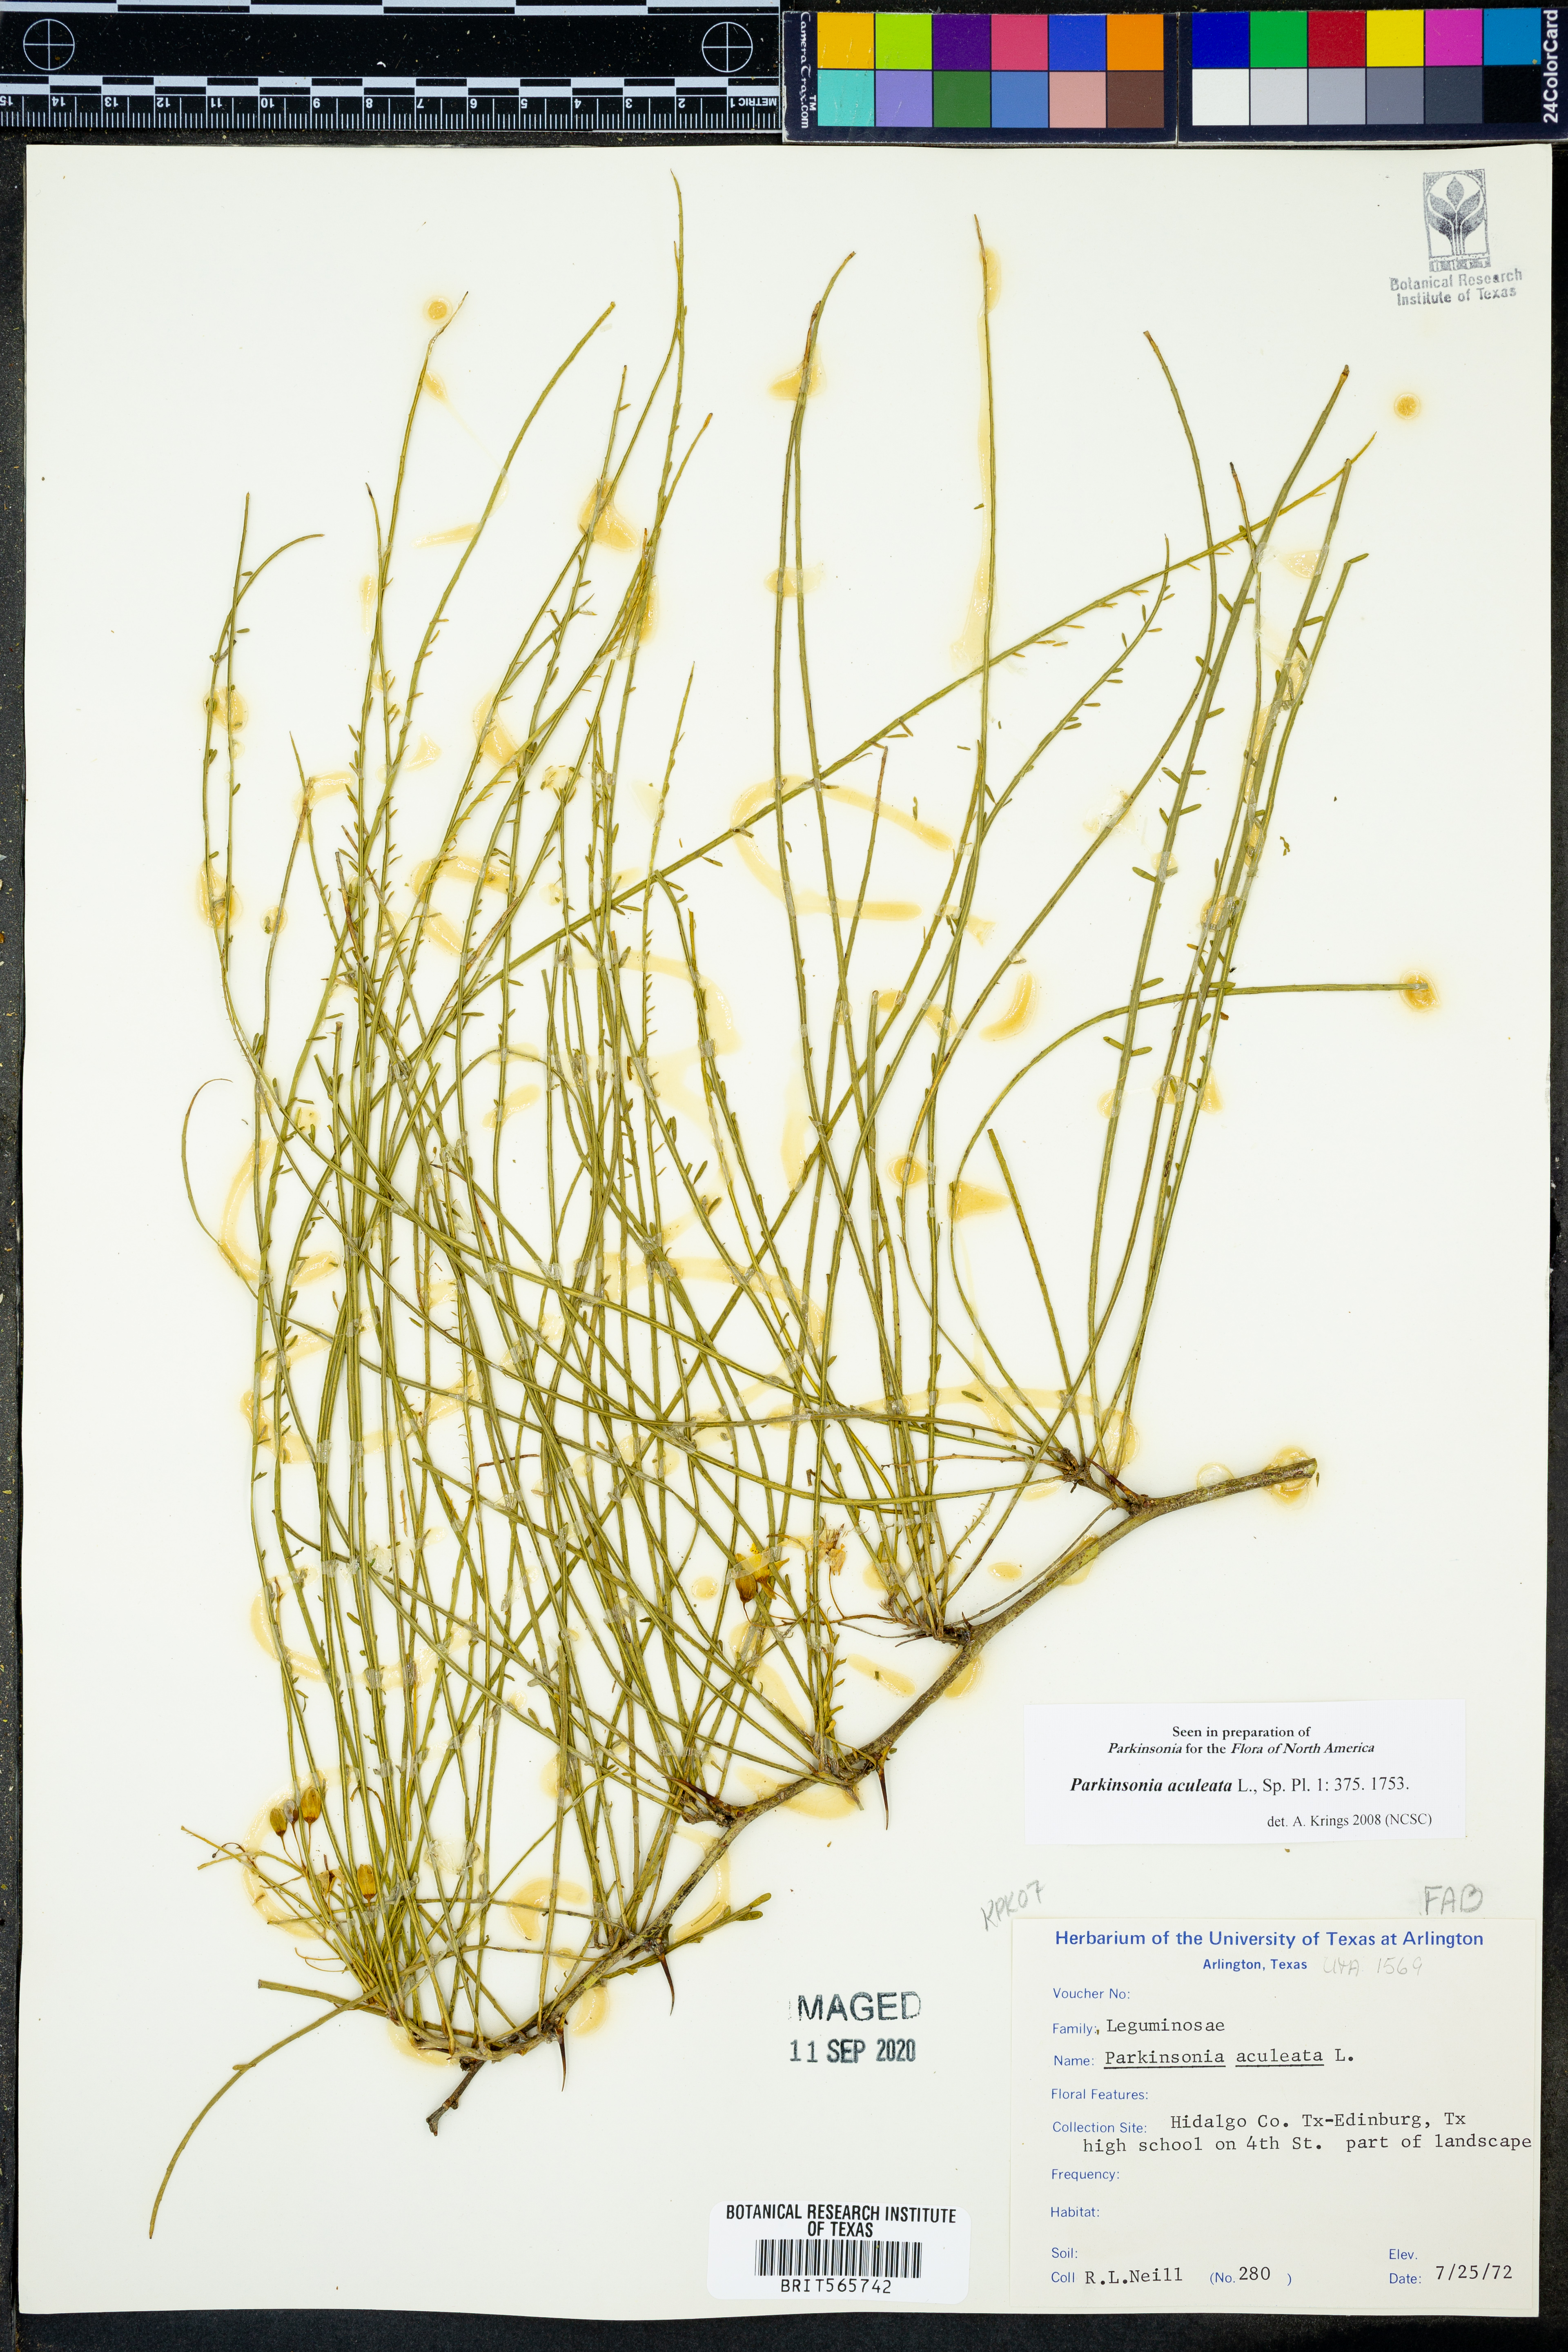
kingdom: Plantae
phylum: Tracheophyta
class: Magnoliopsida
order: Fabales
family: Fabaceae
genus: Parkinsonia
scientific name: Parkinsonia aculeata
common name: Jerusalem thorn
